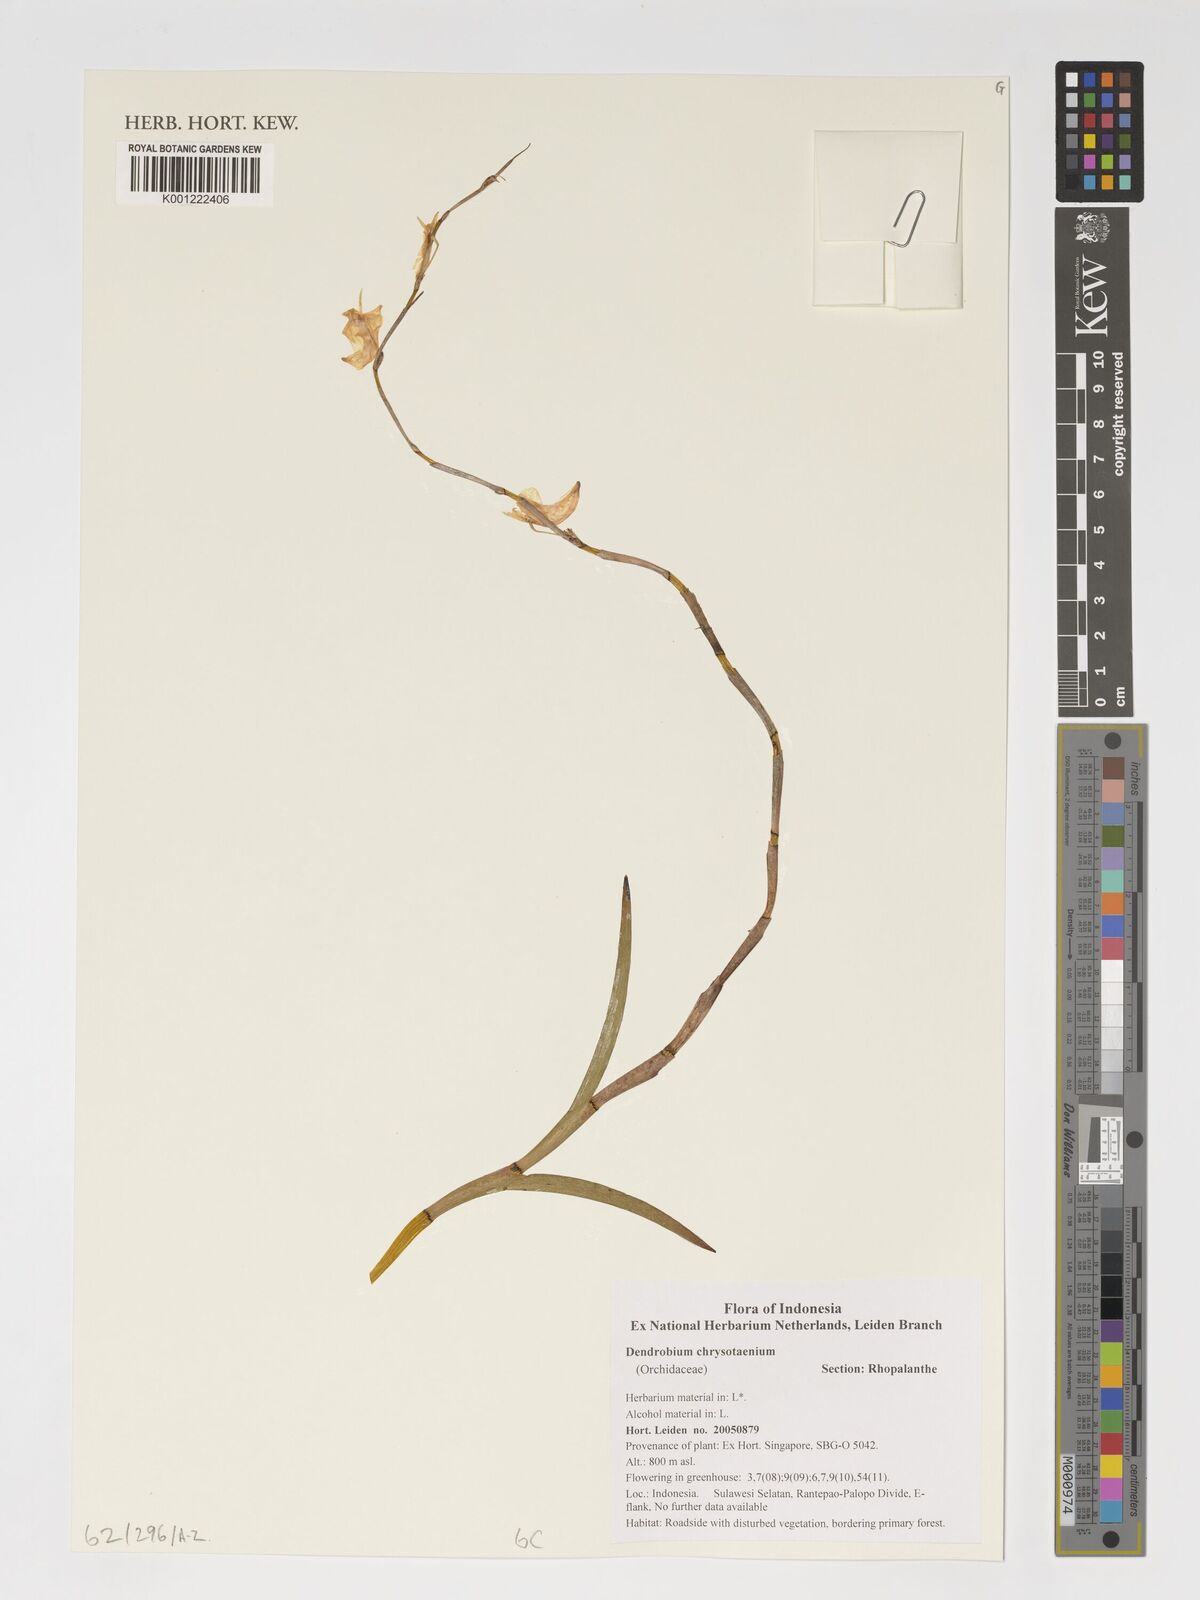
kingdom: Plantae
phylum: Tracheophyta
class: Liliopsida
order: Asparagales
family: Orchidaceae
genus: Dendrobium
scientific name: Dendrobium chrysotainium
